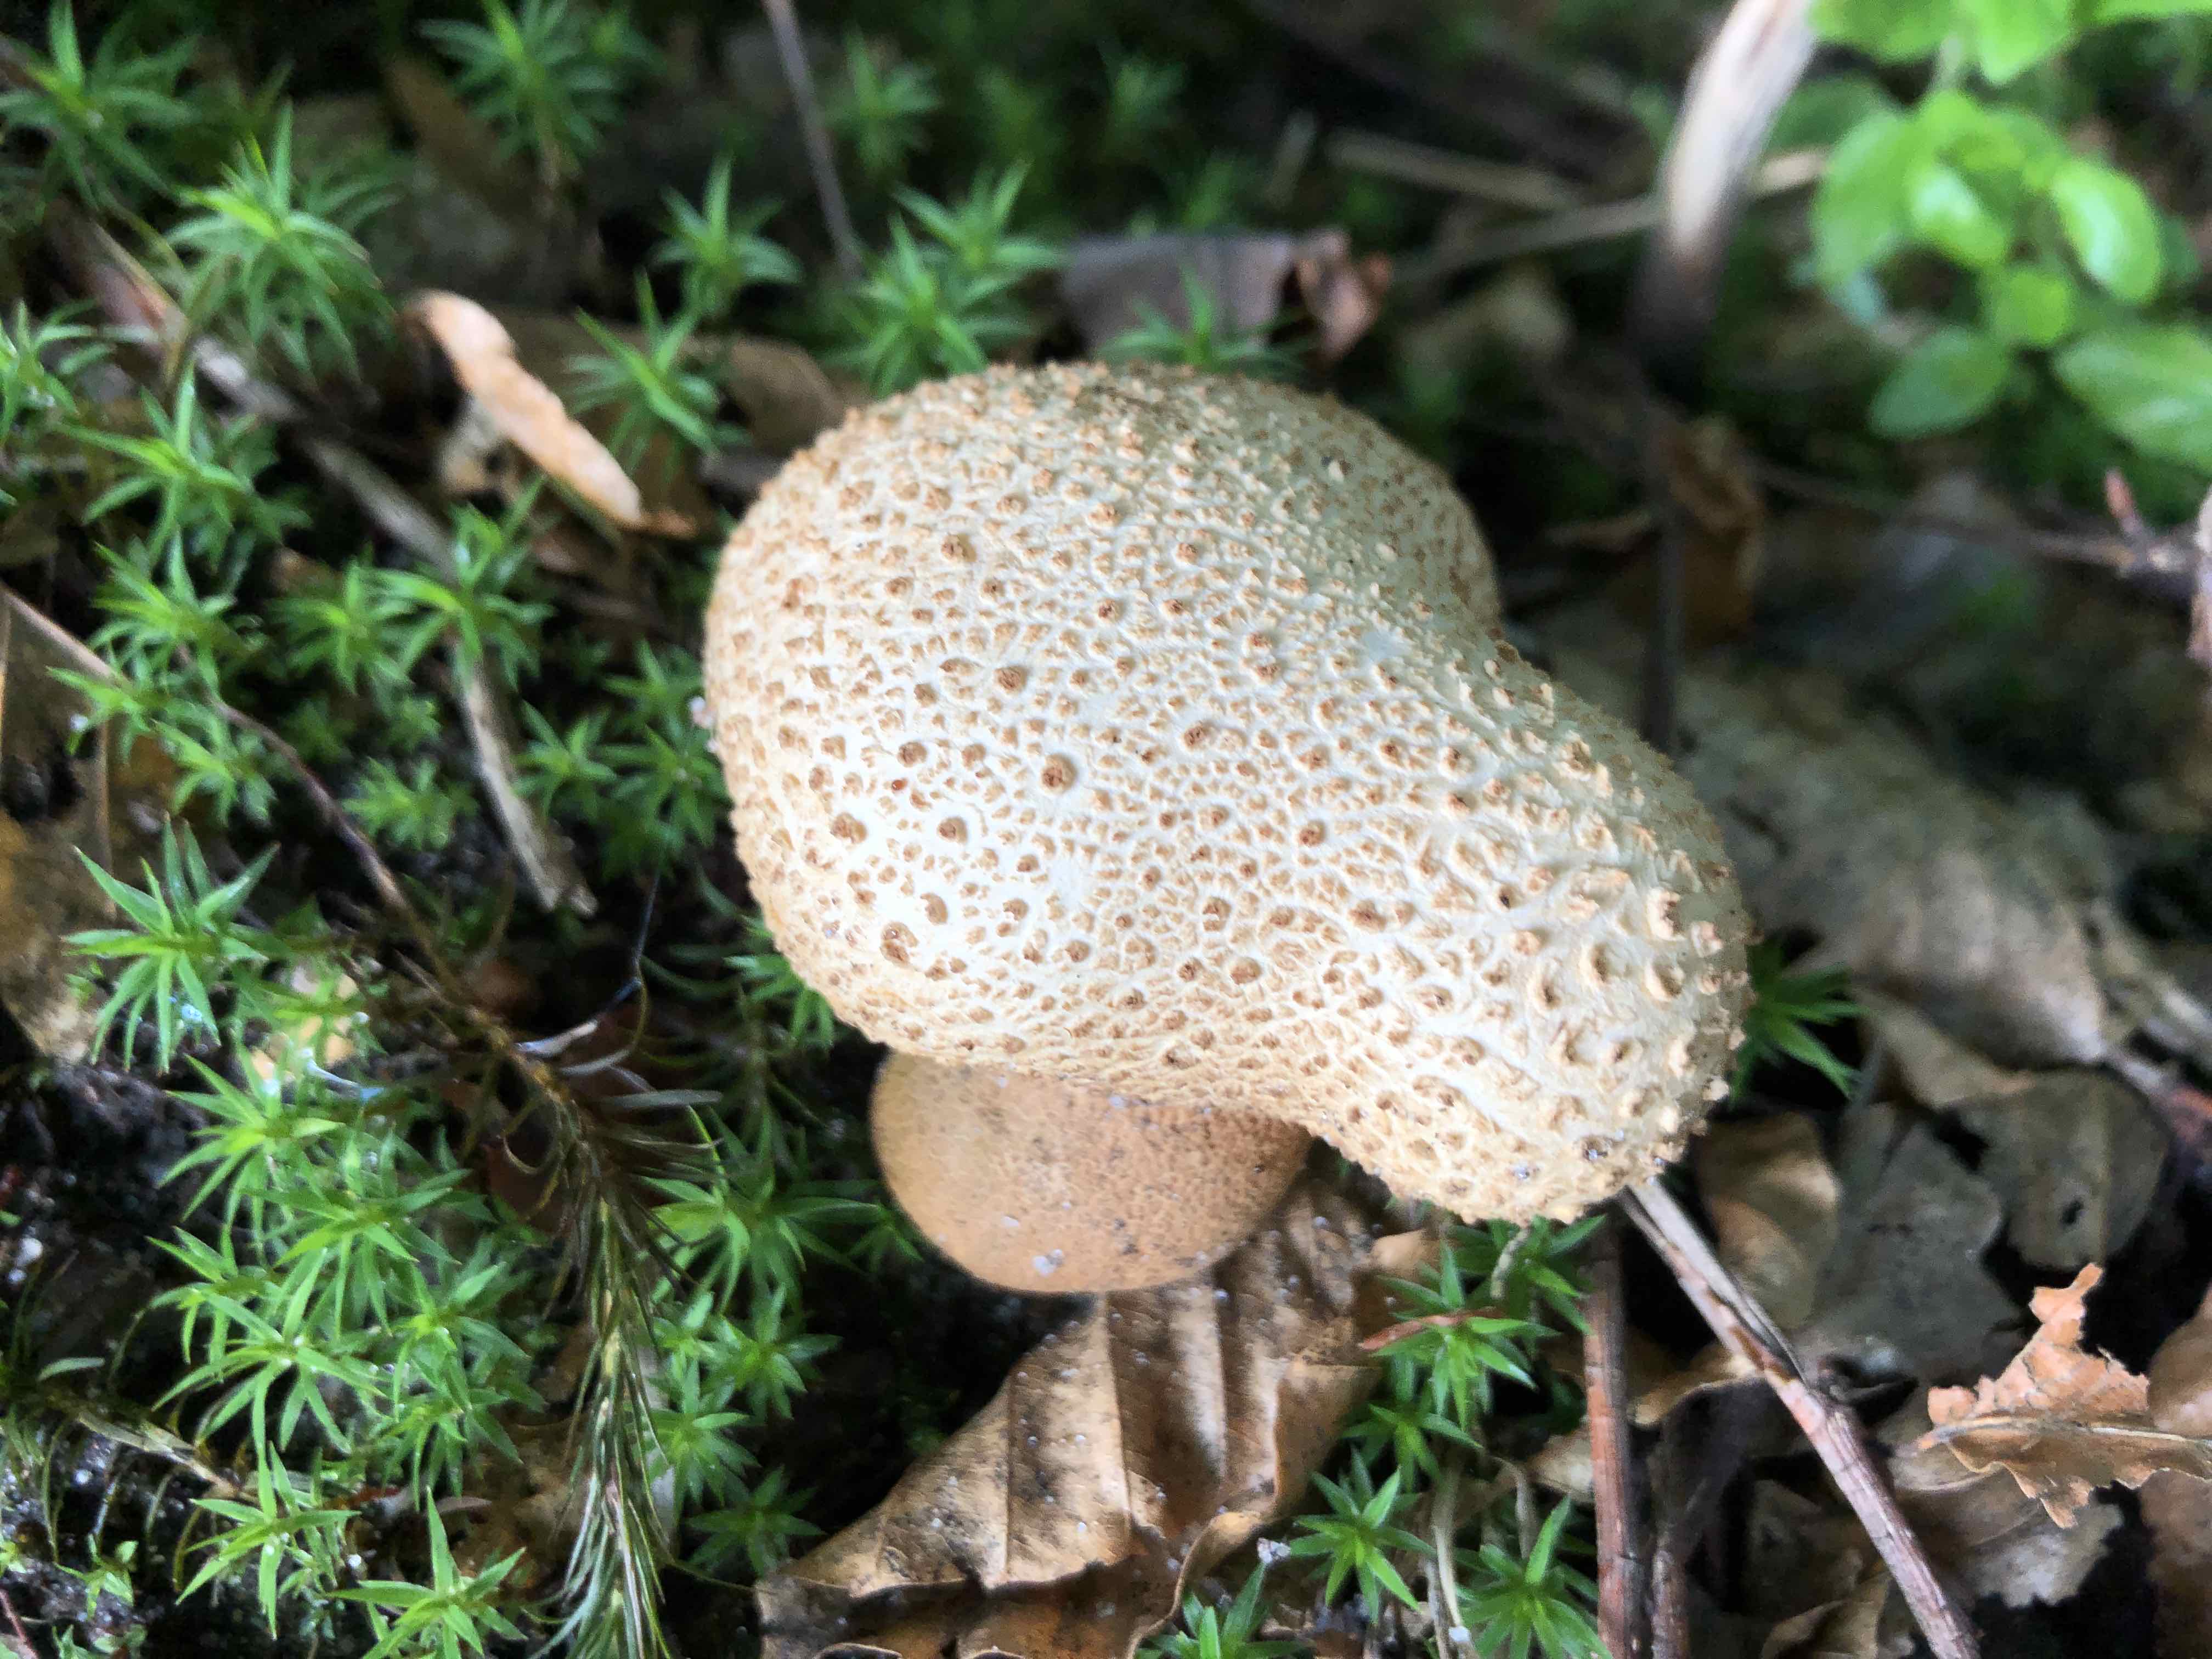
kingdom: Fungi
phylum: Basidiomycota
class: Agaricomycetes
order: Boletales
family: Sclerodermataceae
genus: Scleroderma
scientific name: Scleroderma citrinum
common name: almindelig bruskbold
